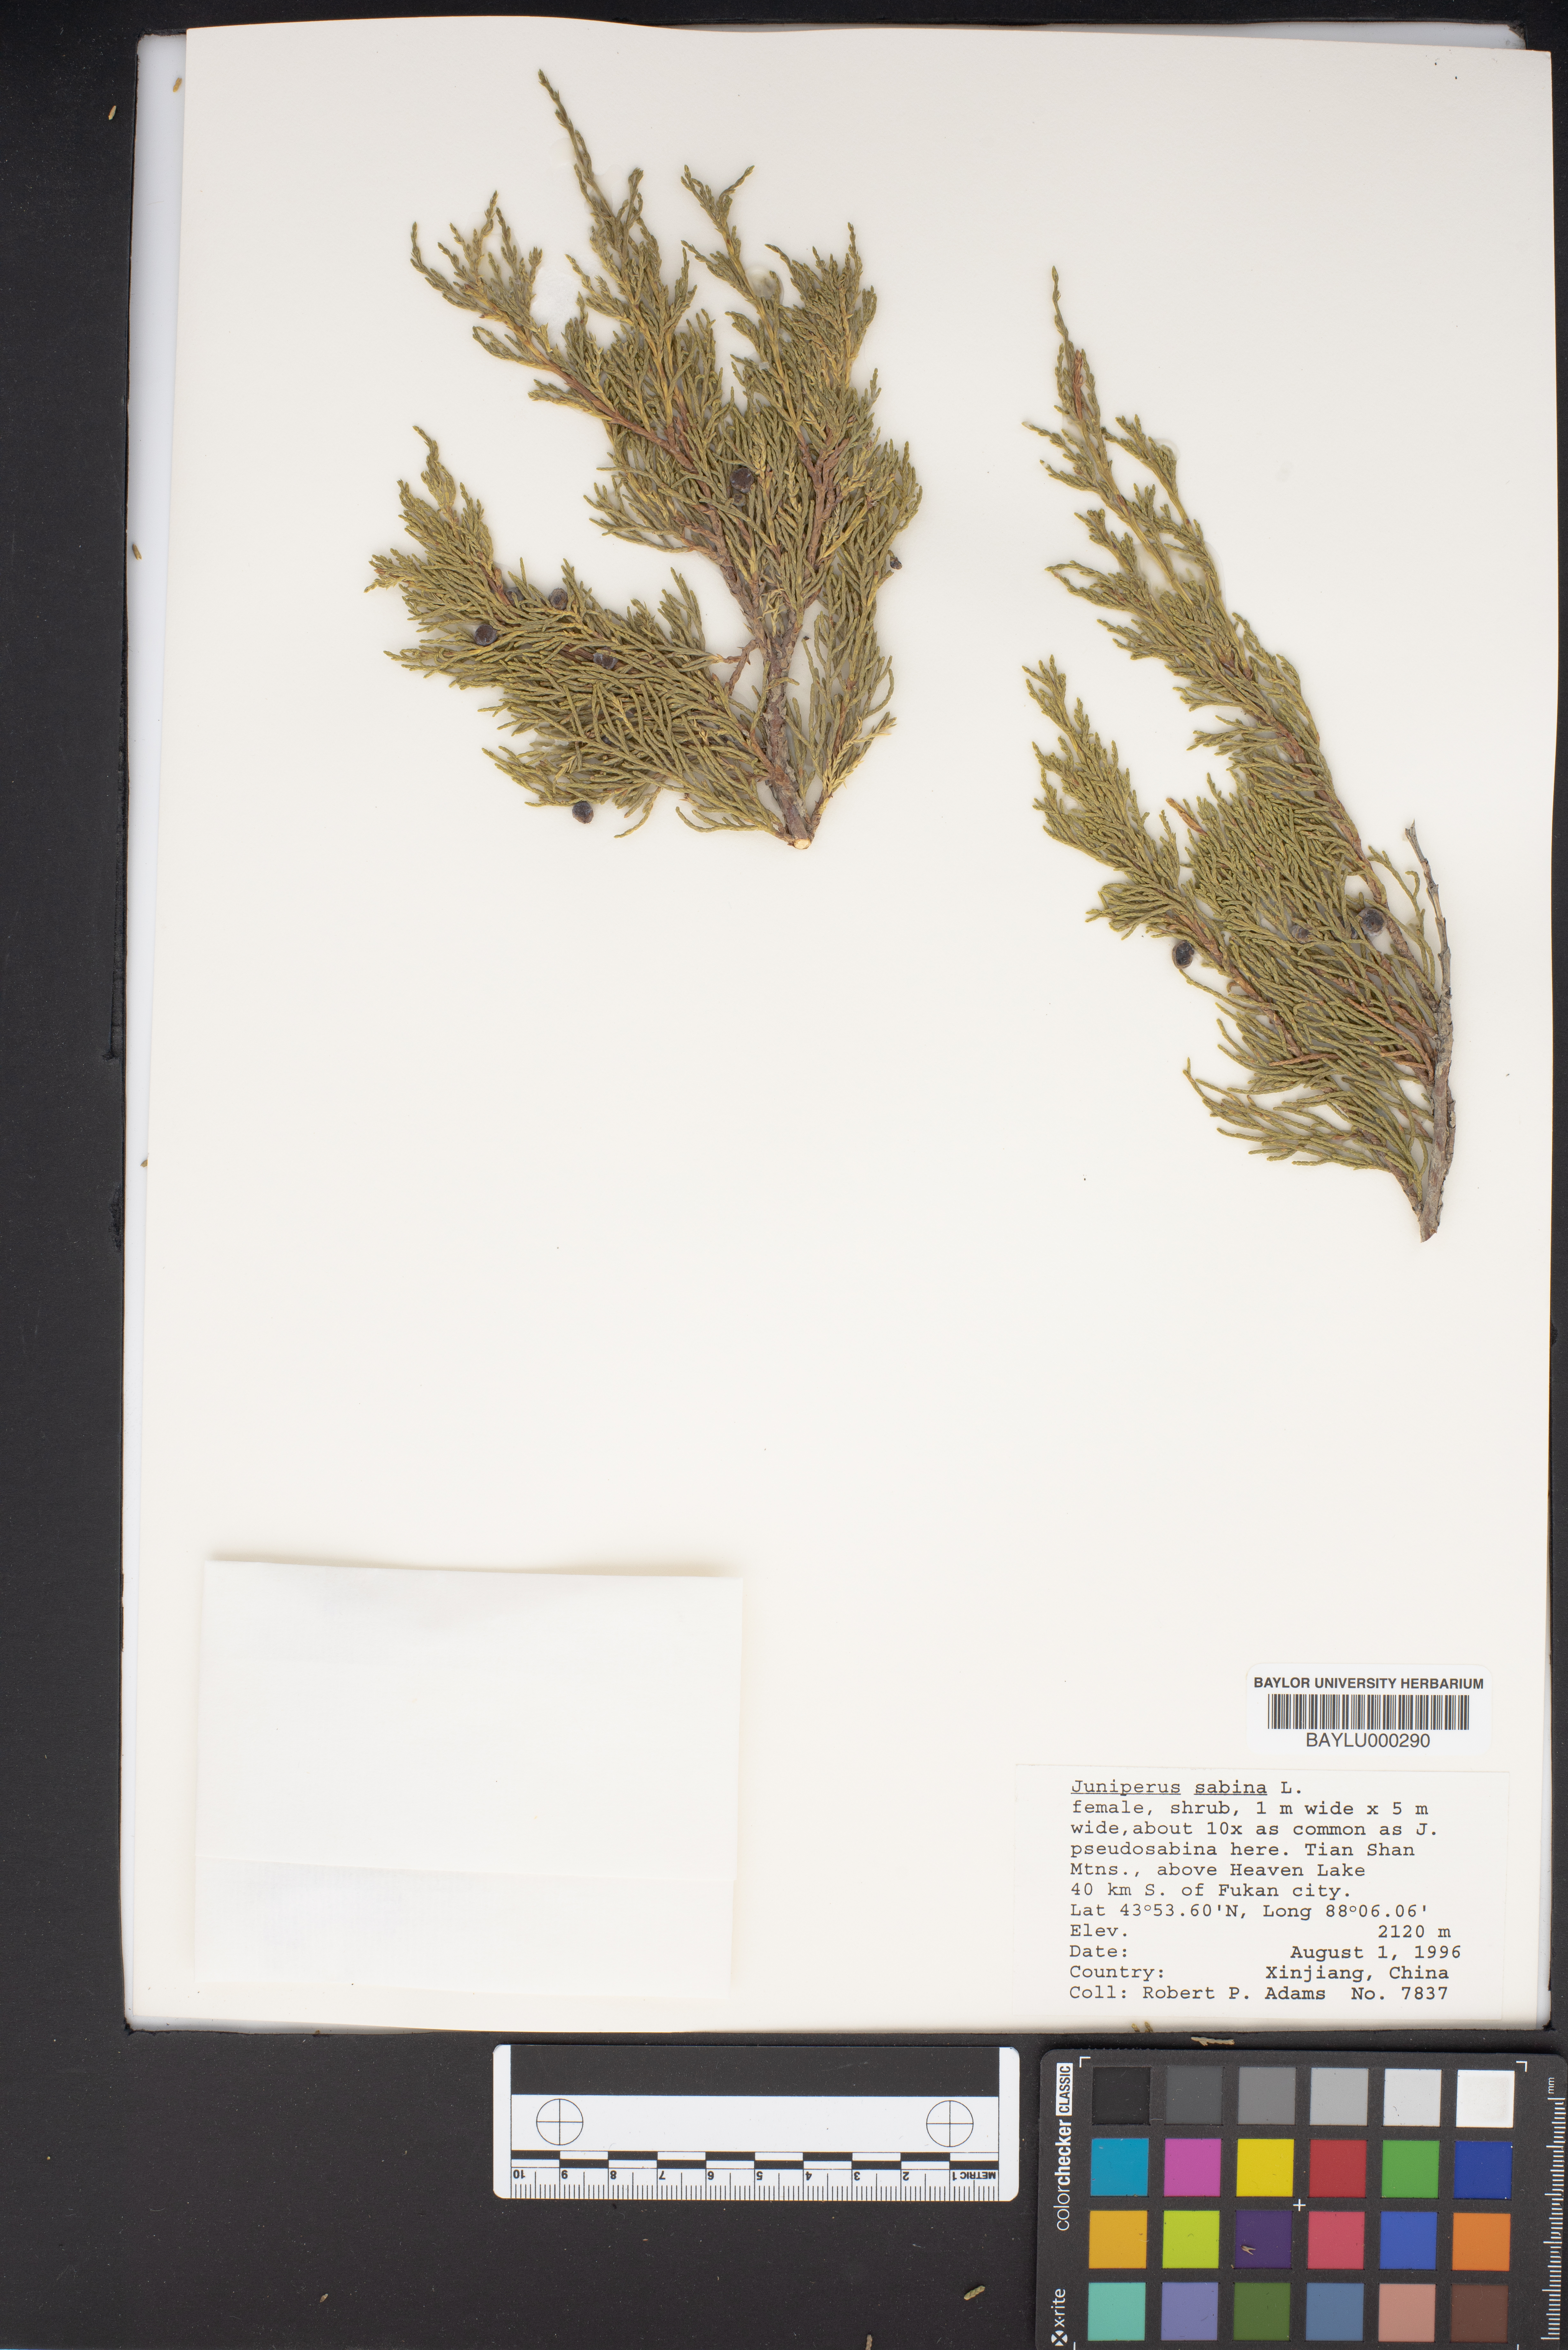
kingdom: Plantae
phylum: Tracheophyta
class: Pinopsida
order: Pinales
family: Cupressaceae
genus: Juniperus
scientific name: Juniperus sabina
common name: Savin
